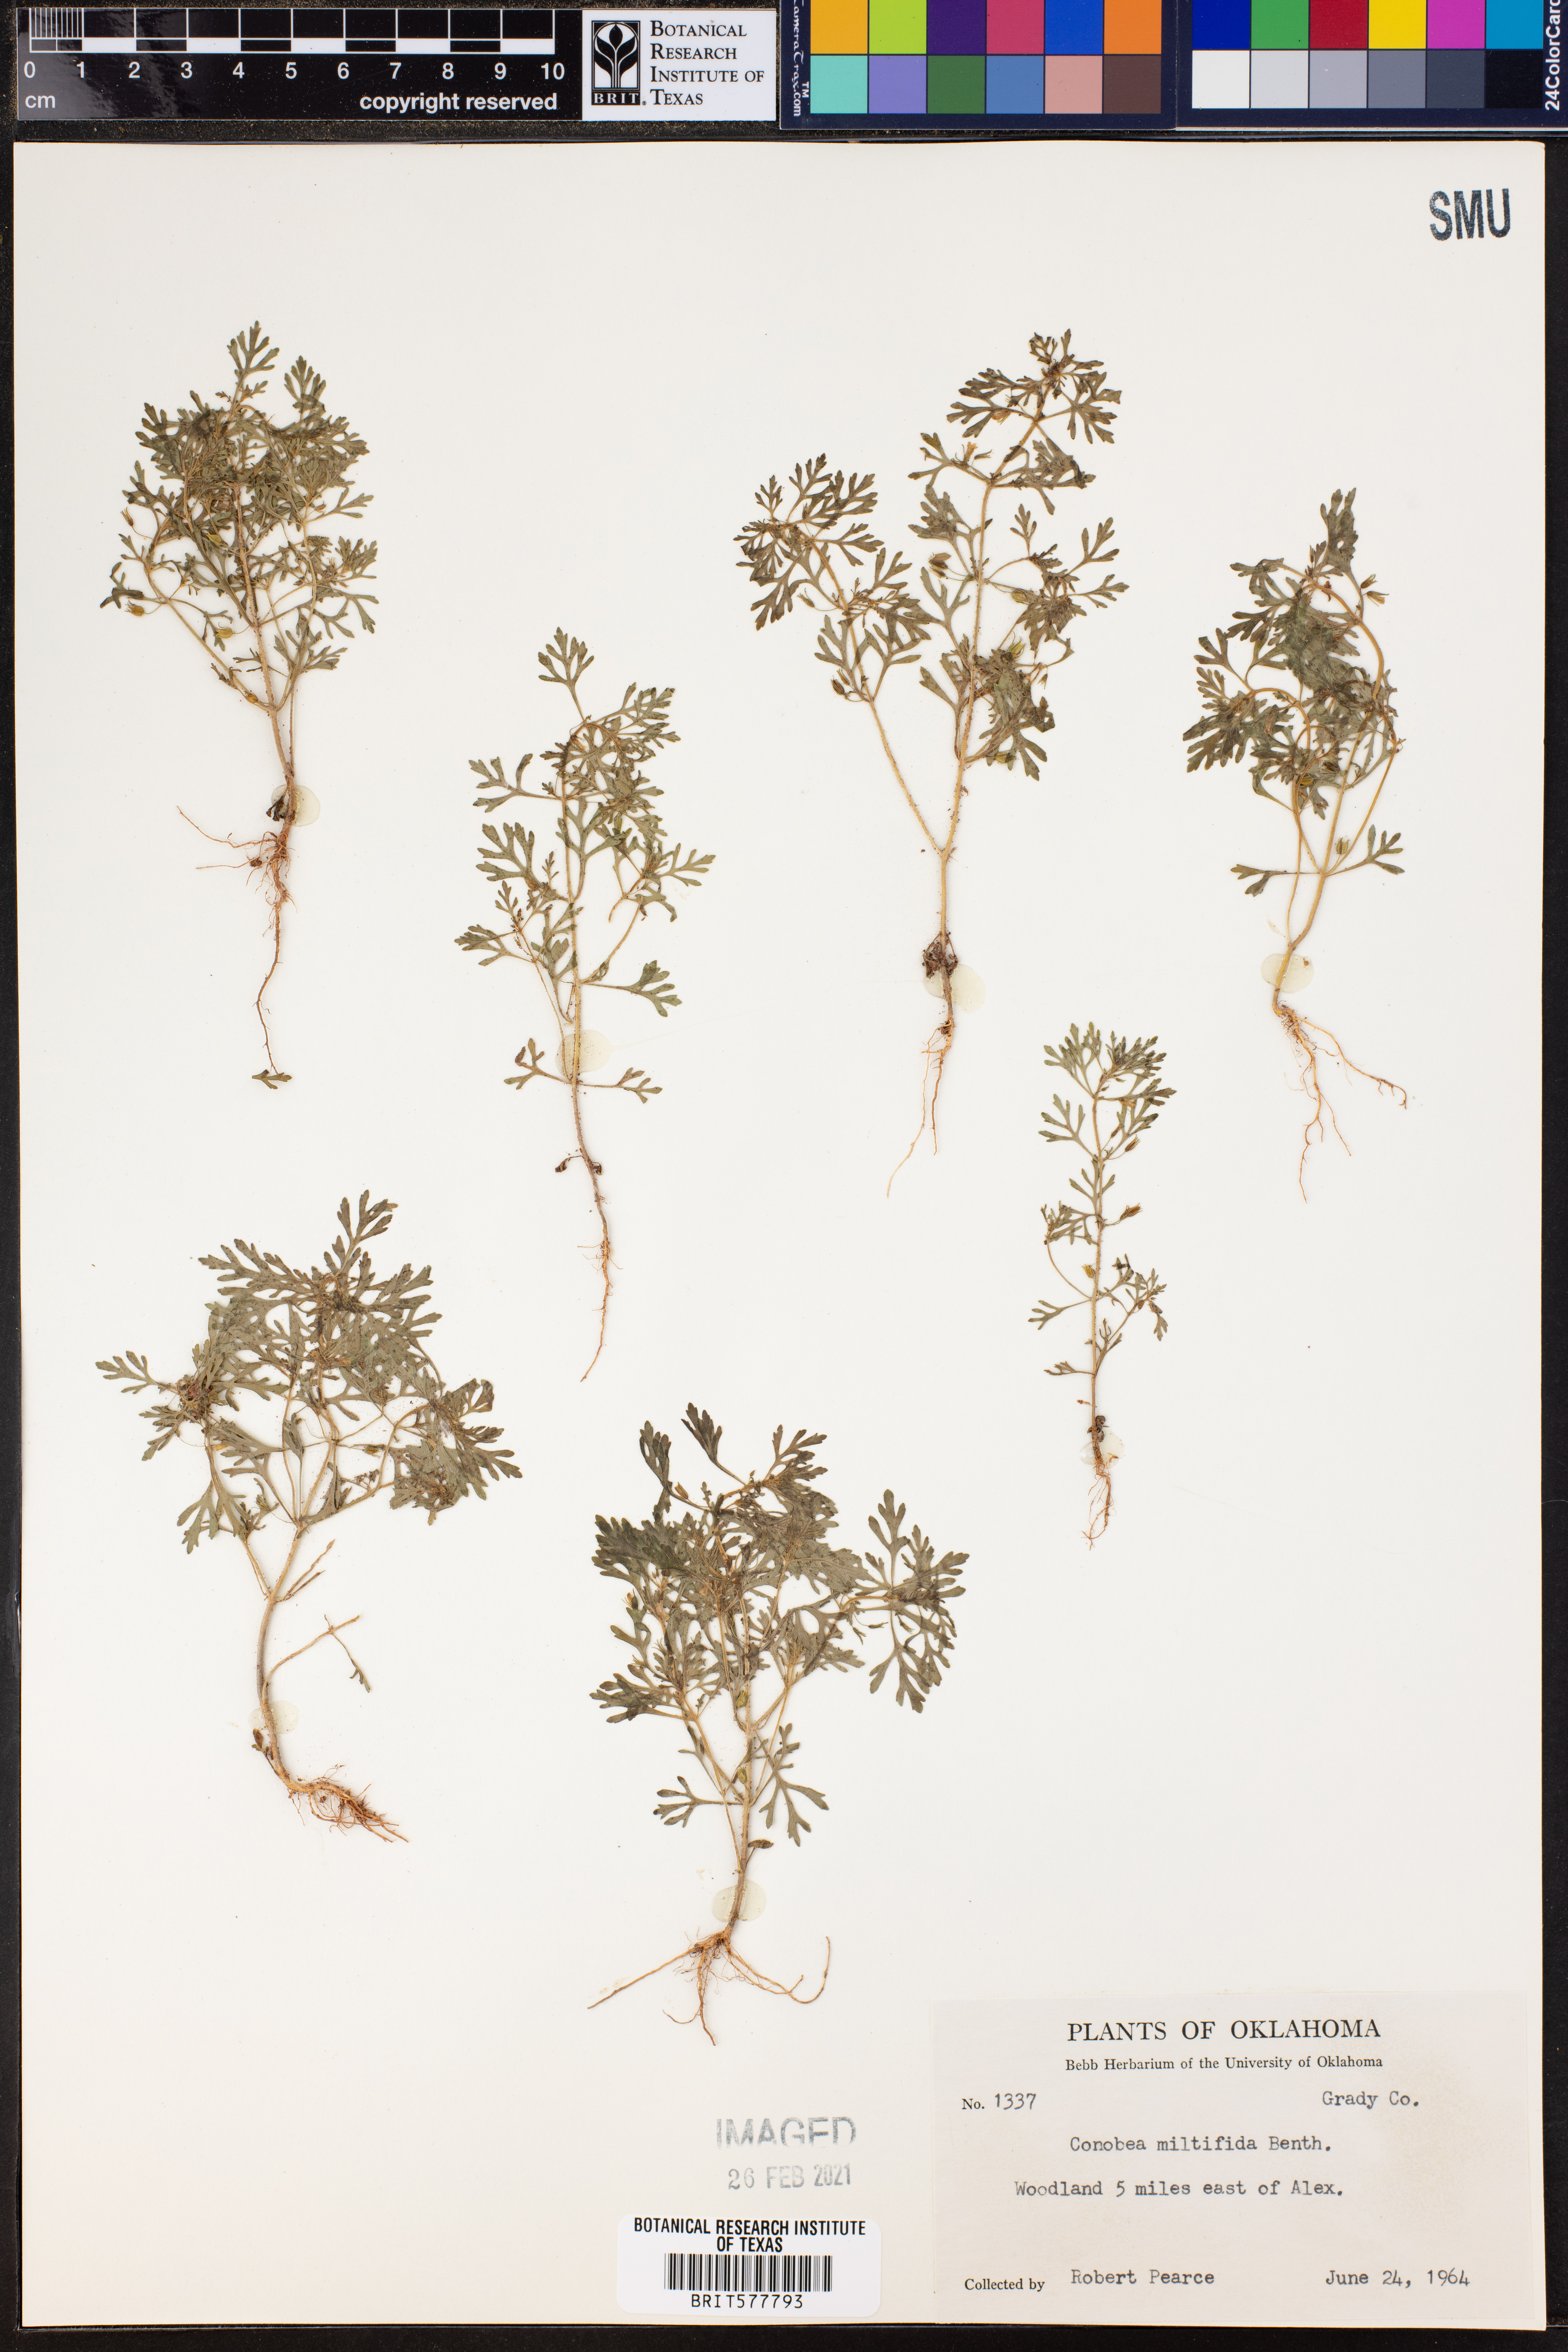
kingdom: Plantae
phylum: Tracheophyta
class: Magnoliopsida
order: Lamiales
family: Plantaginaceae
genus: Leucospora
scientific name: Leucospora multifida
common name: Narrow-leaf paleseed
